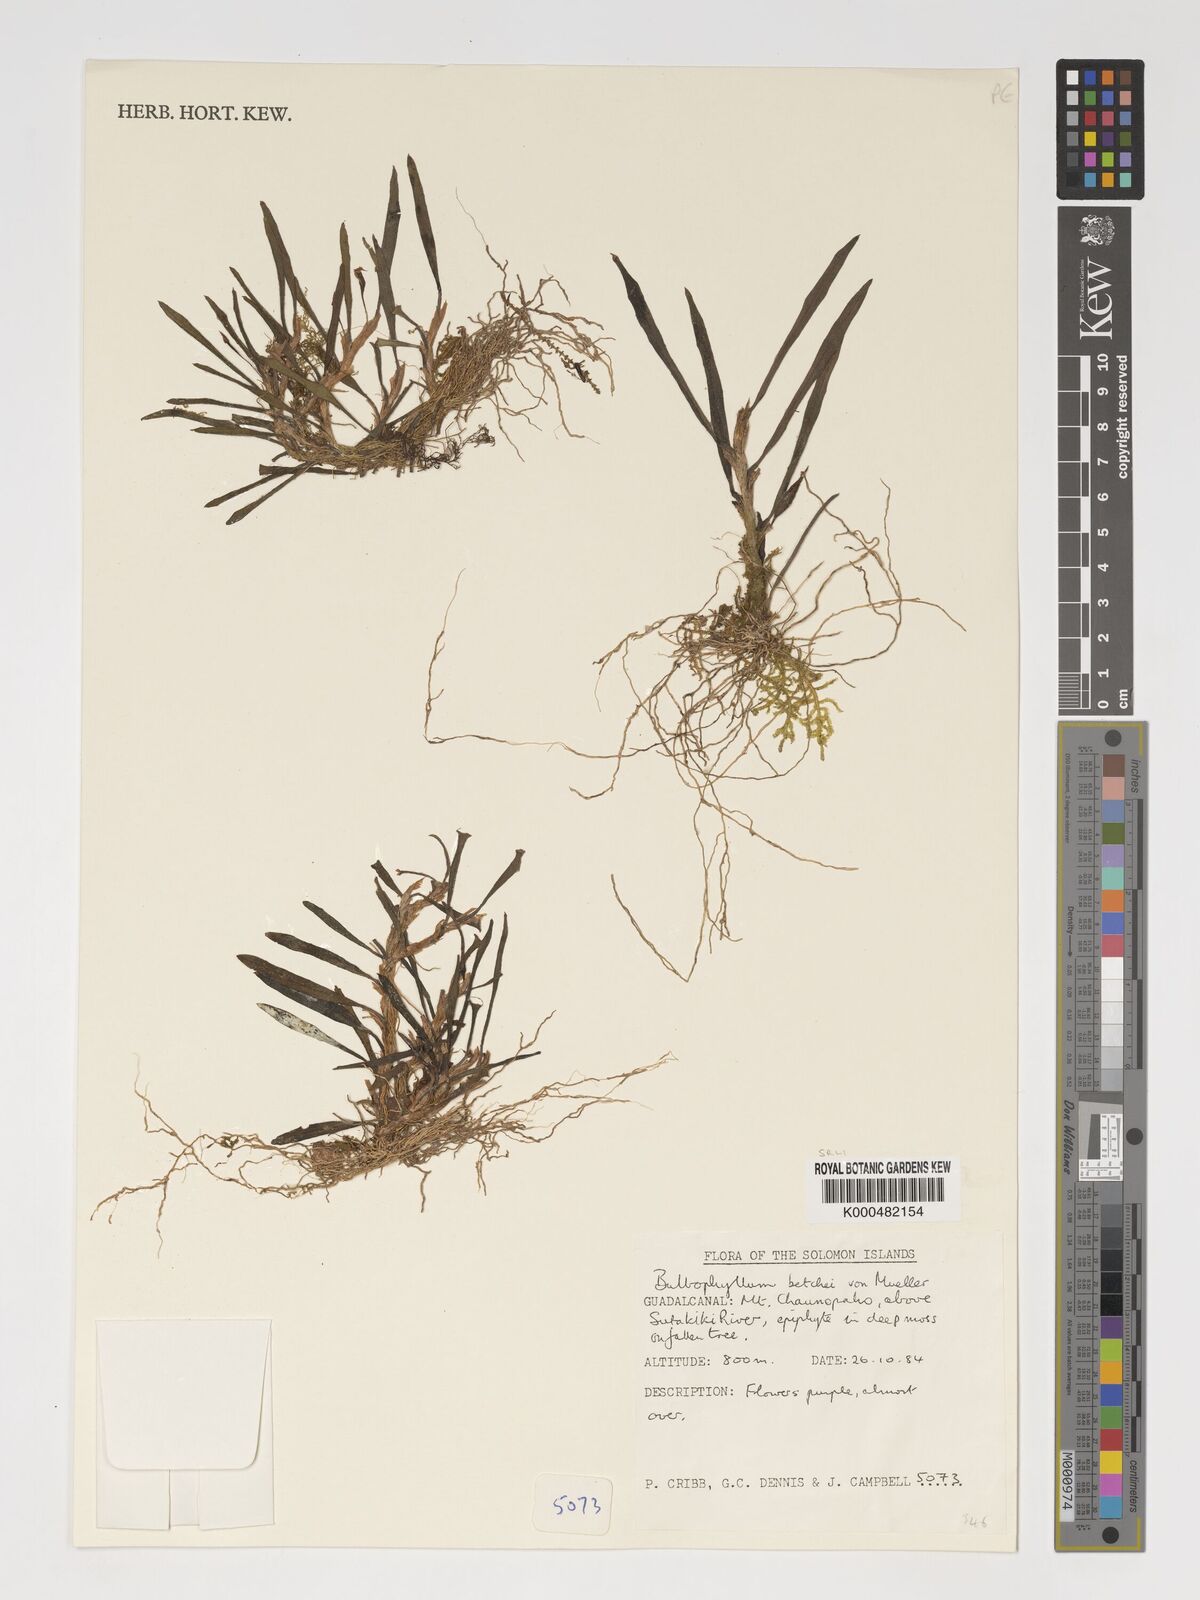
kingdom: Plantae
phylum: Tracheophyta
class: Liliopsida
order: Asparagales
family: Orchidaceae
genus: Bulbophyllum
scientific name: Bulbophyllum betchei
